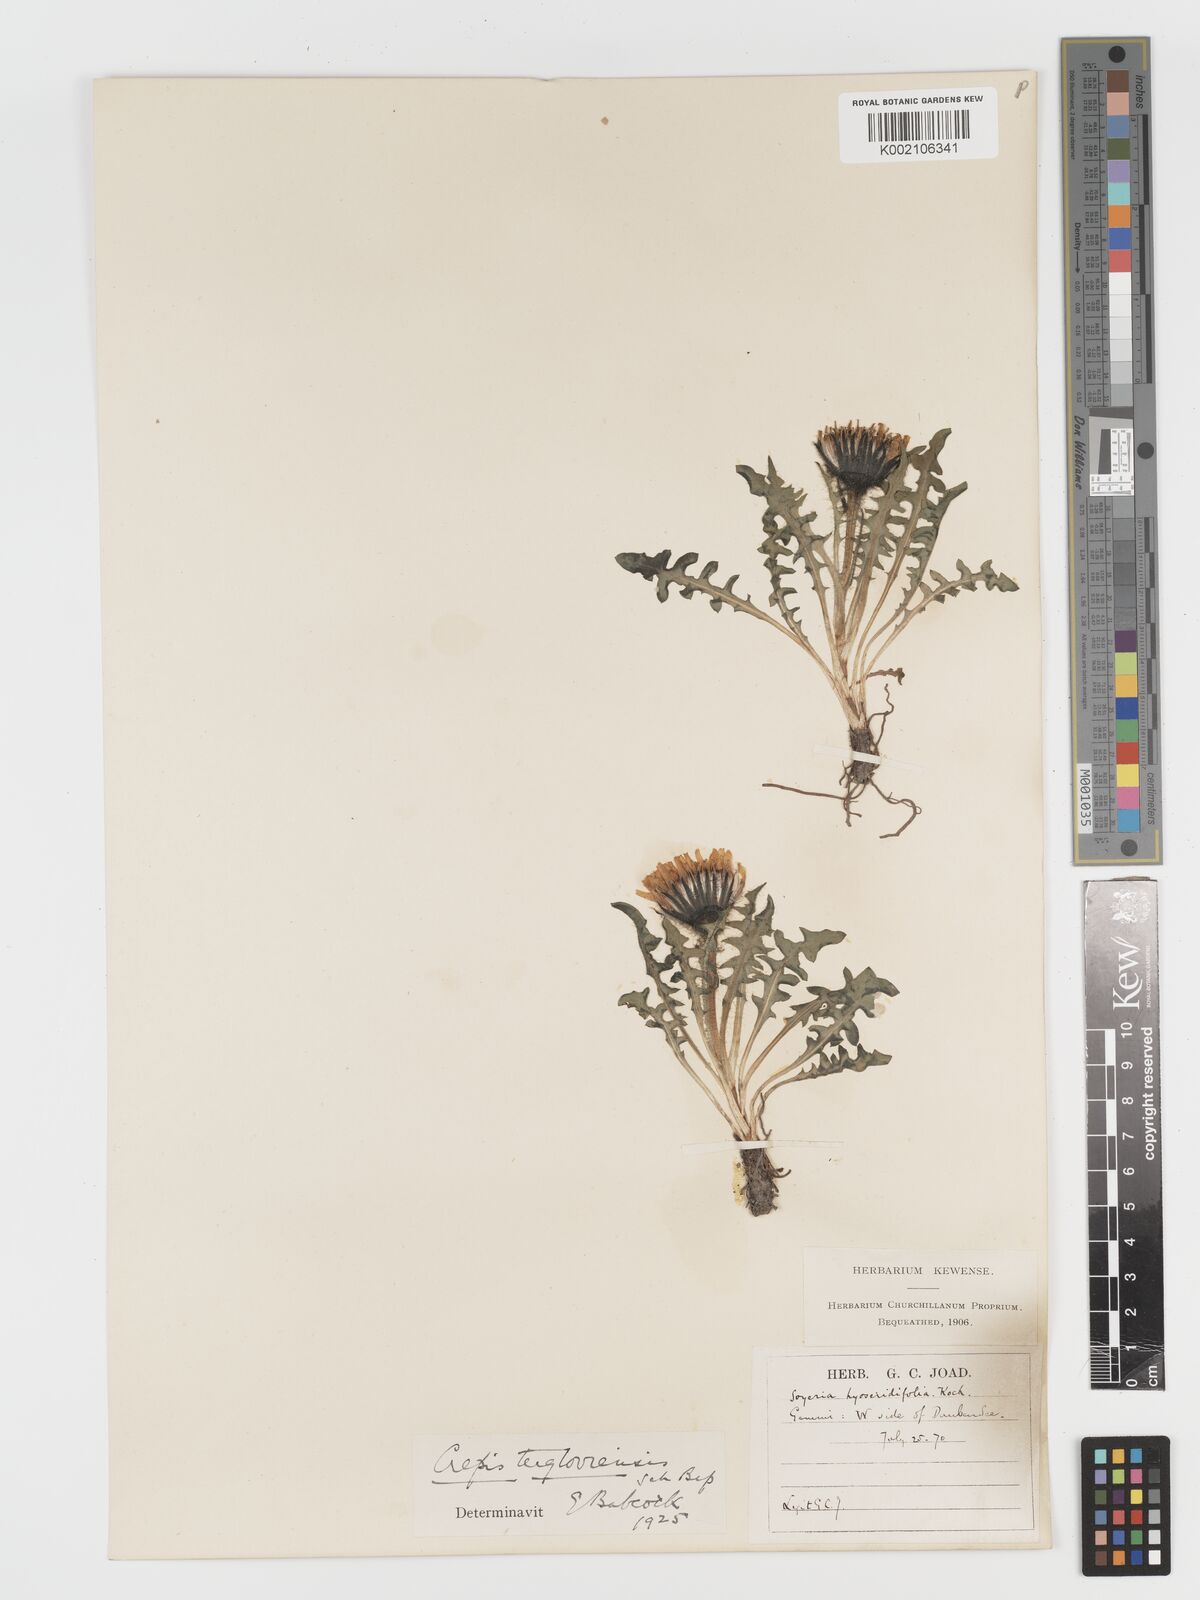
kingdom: Plantae
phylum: Tracheophyta
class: Magnoliopsida
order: Asterales
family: Asteraceae
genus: Crepis
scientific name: Crepis
